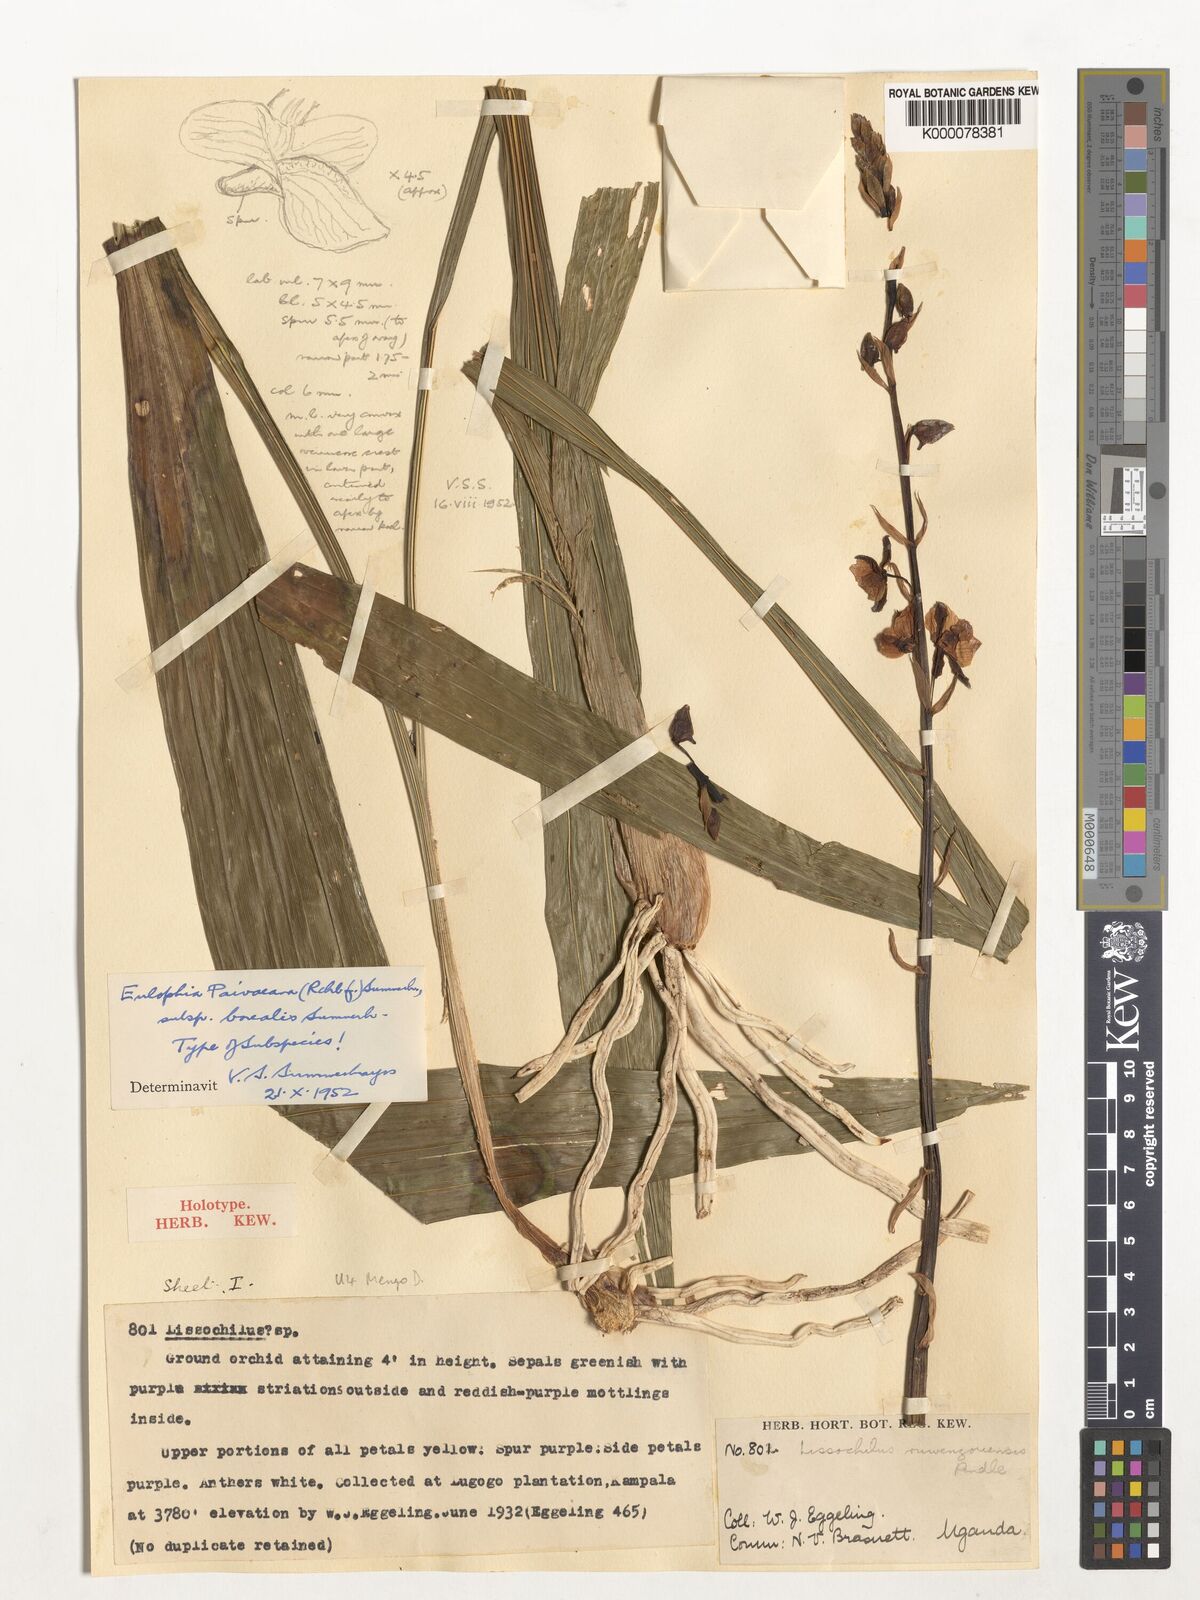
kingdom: Plantae
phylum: Tracheophyta
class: Liliopsida
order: Asparagales
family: Orchidaceae
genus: Eulophia
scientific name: Eulophia streptopetala
